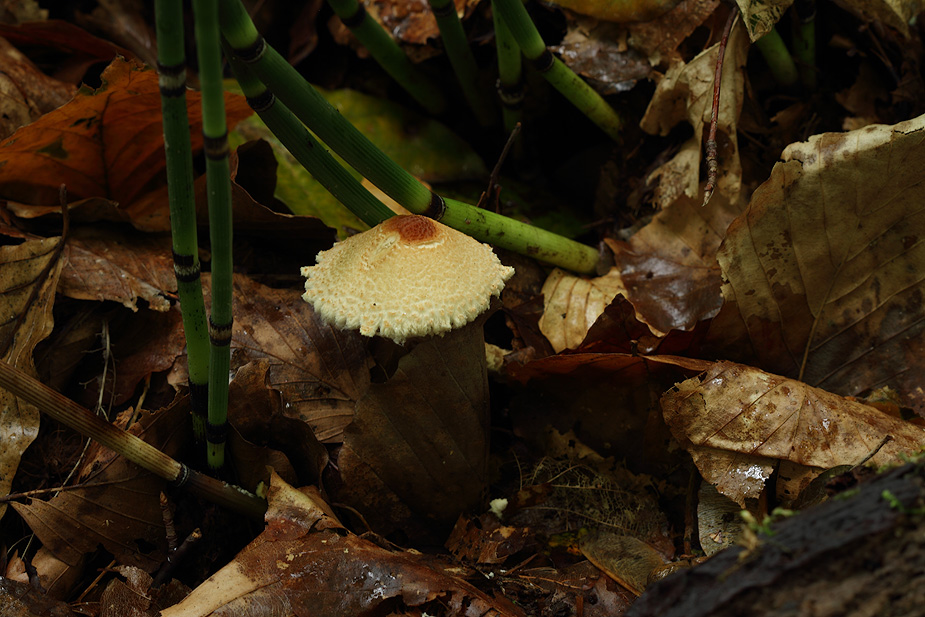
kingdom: Fungi
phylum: Basidiomycota
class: Agaricomycetes
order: Agaricales
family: Agaricaceae
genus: Lepiota
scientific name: Lepiota magnispora
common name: gulfnugget parasolhat
